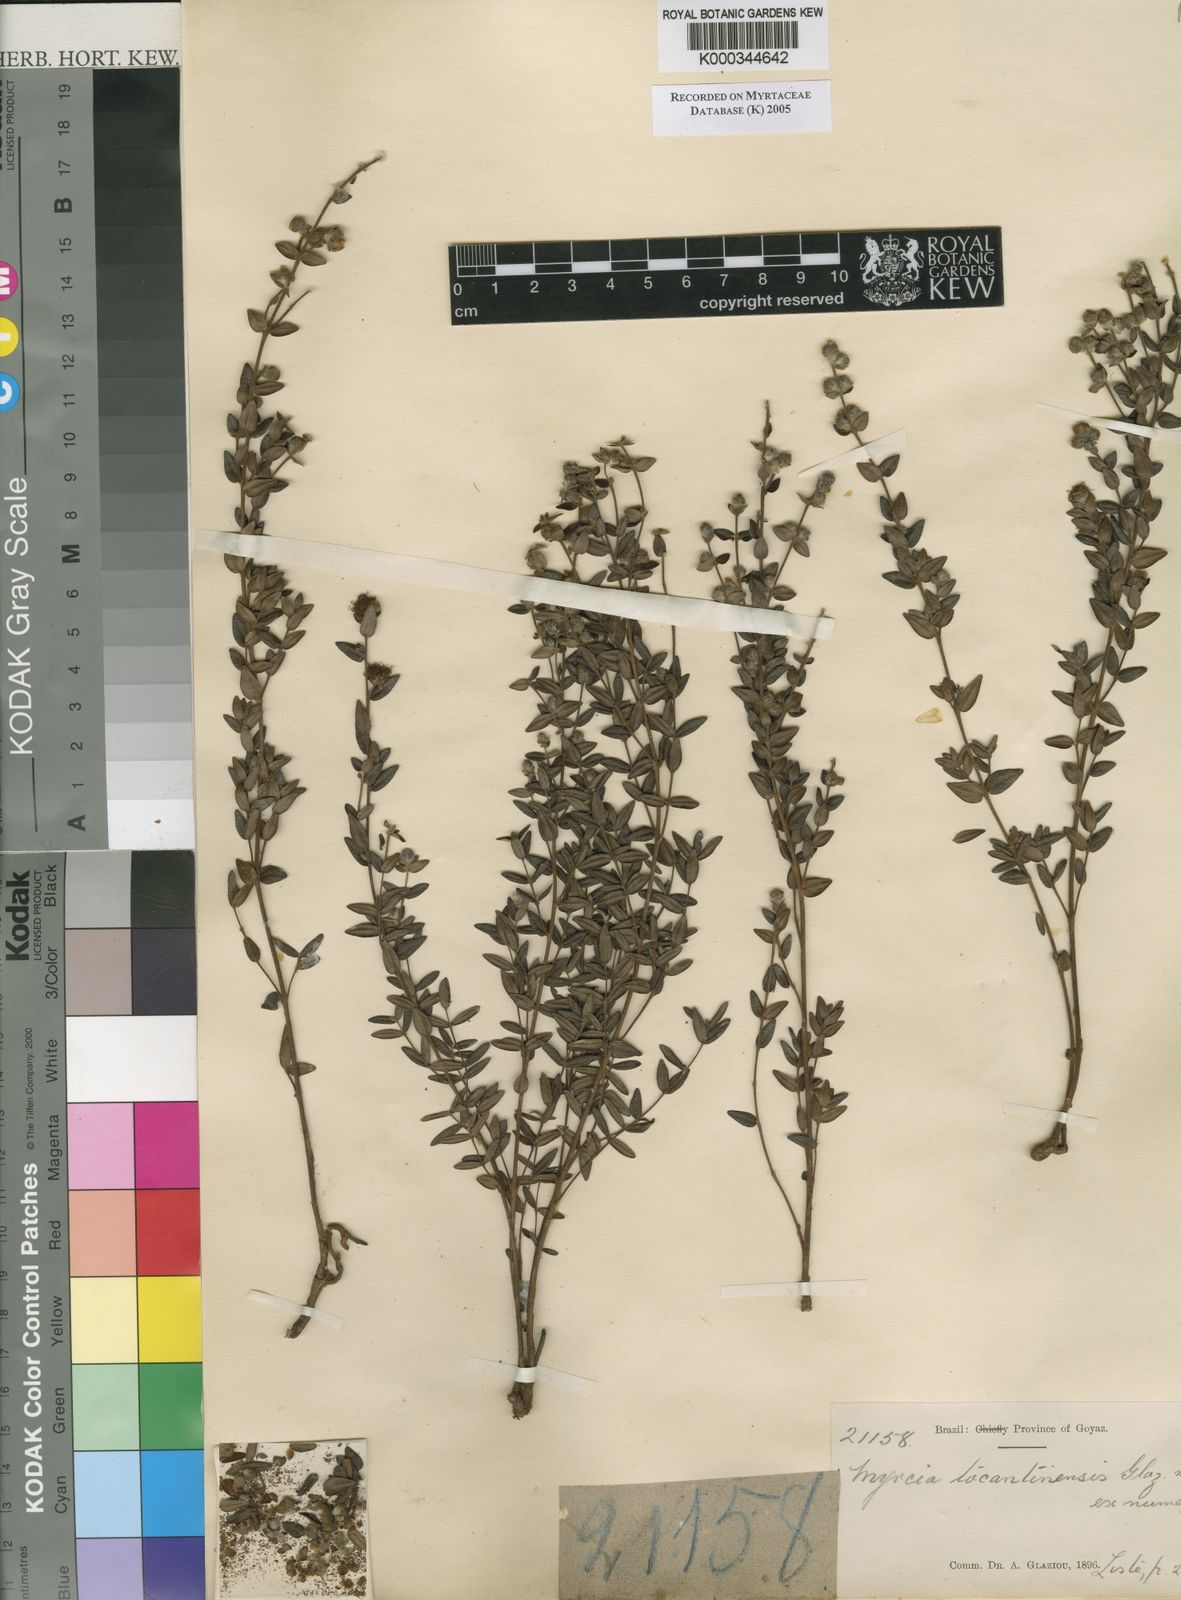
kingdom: Plantae
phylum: Tracheophyta
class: Magnoliopsida
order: Myrtales
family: Myrtaceae
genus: Myrcia
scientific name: Myrcia
